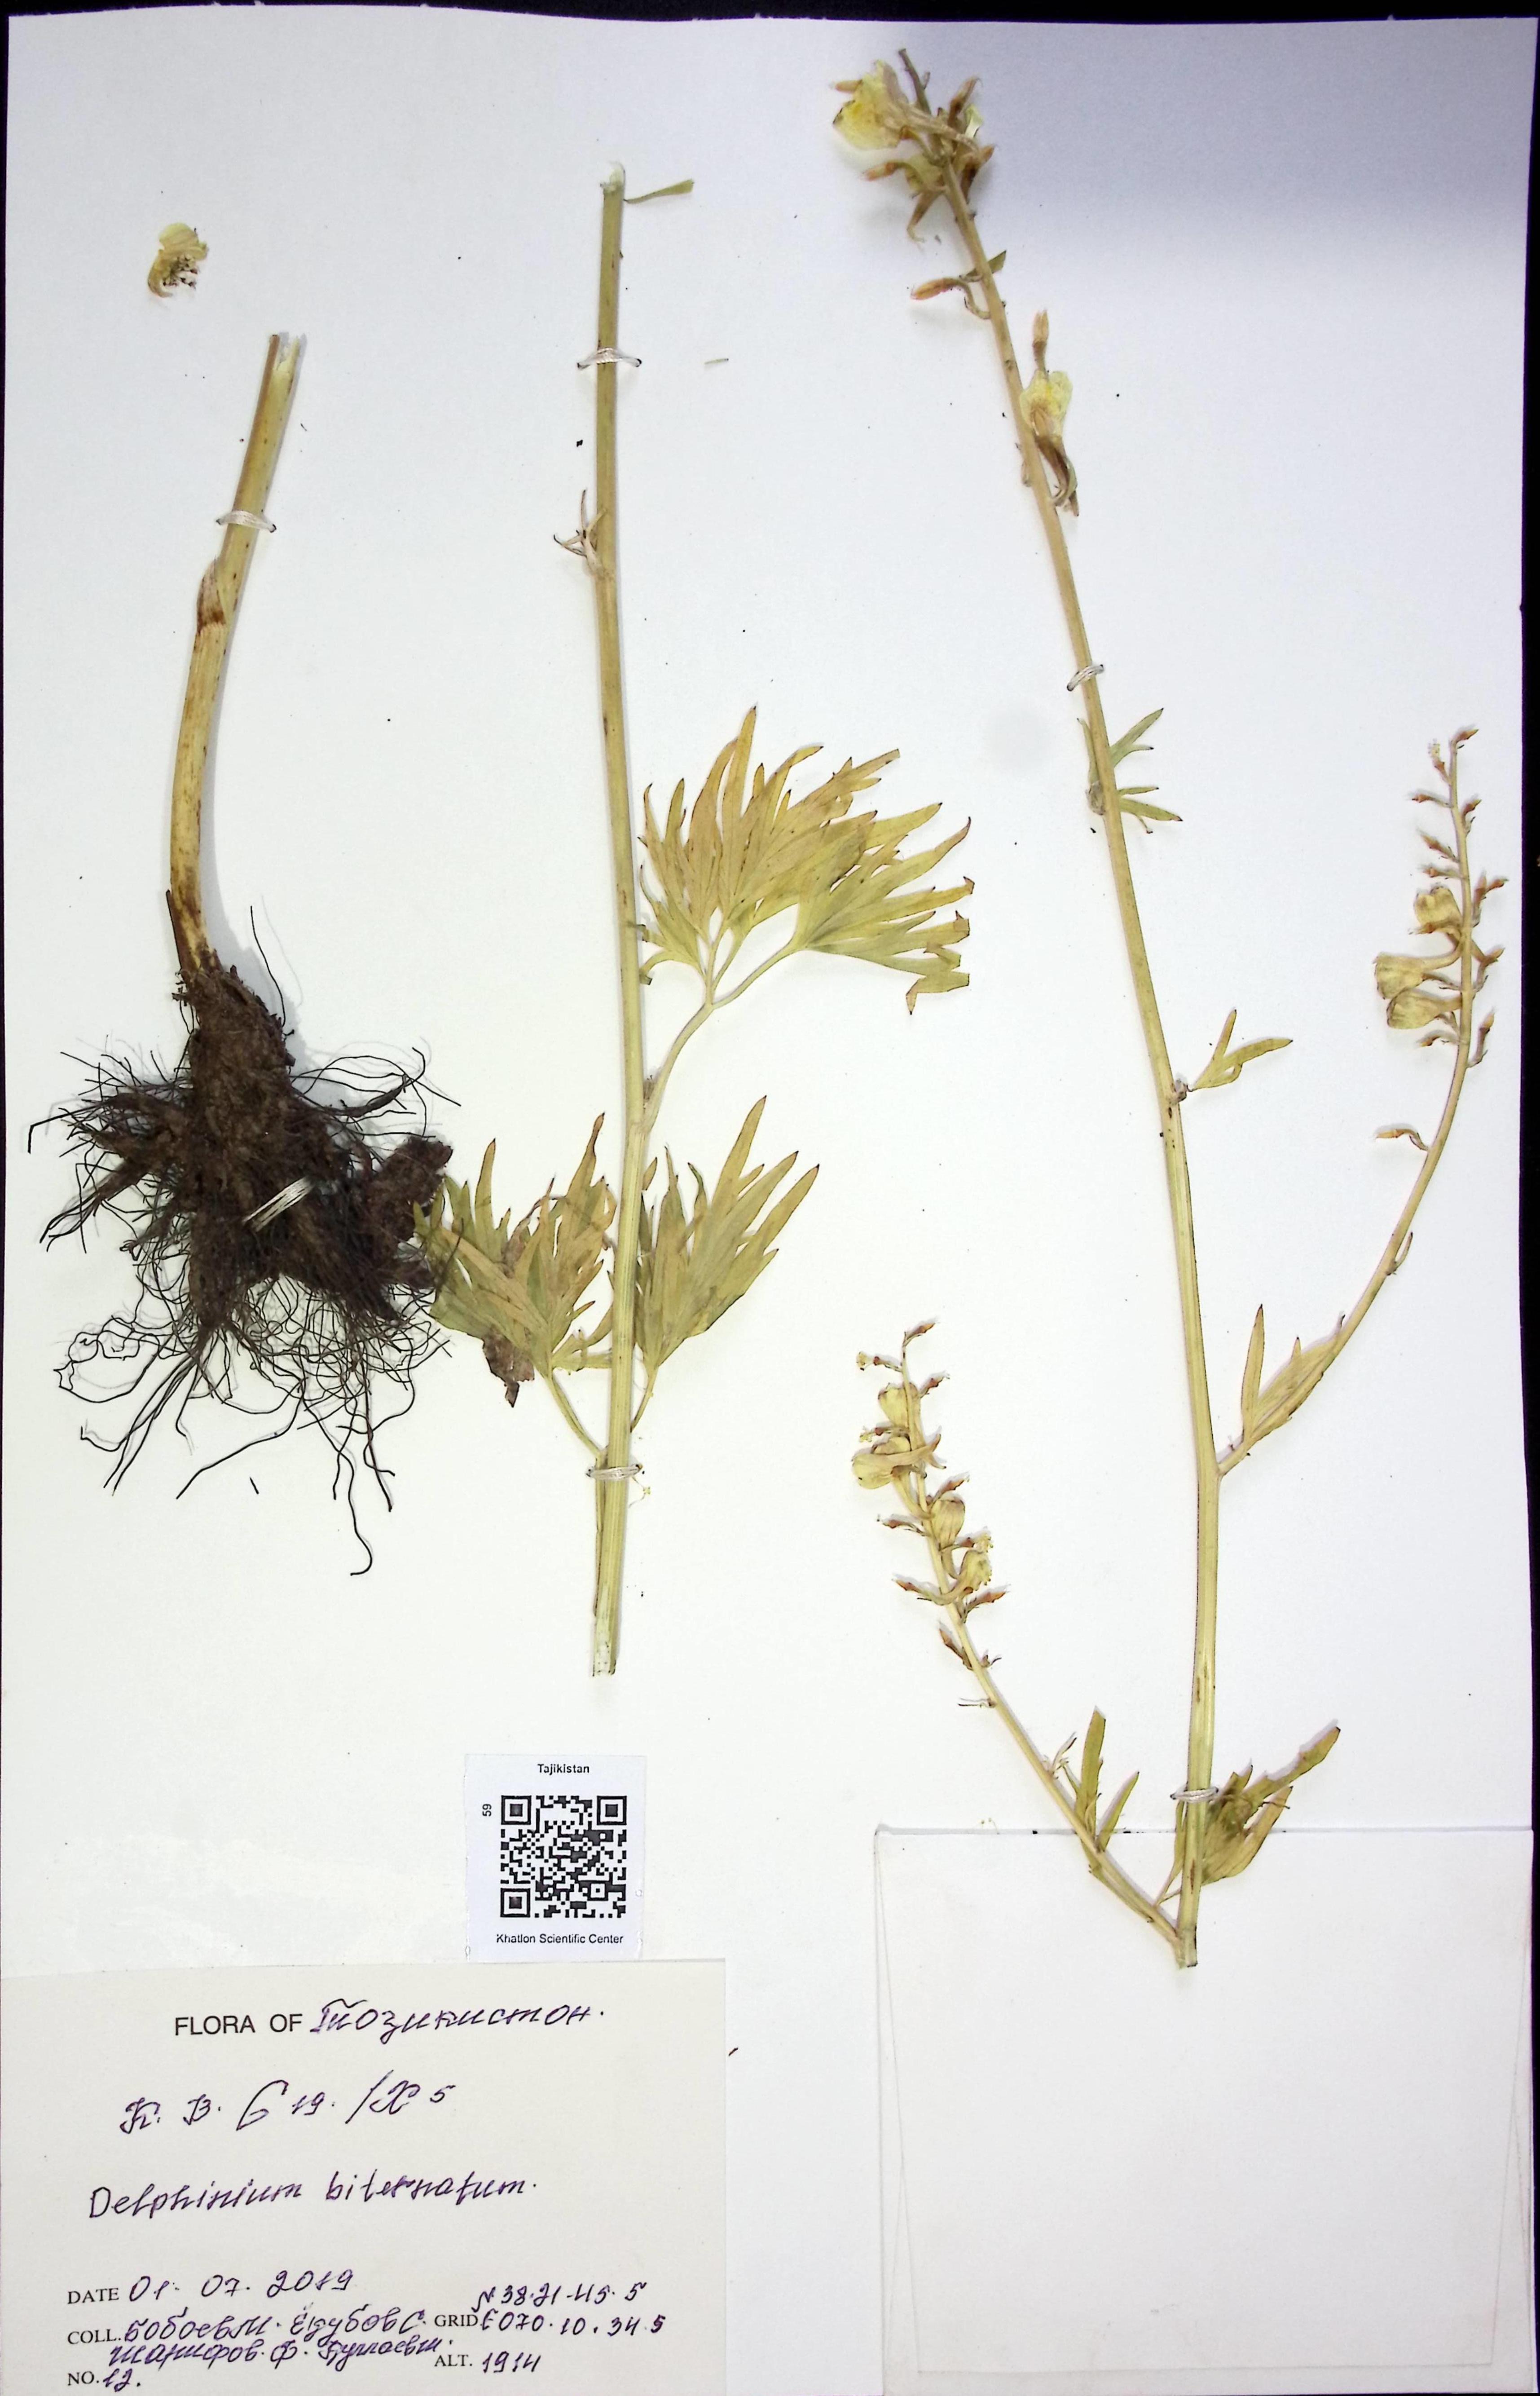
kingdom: Plantae
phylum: Tracheophyta
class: Magnoliopsida
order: Ranunculales
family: Ranunculaceae
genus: Delphinium
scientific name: Delphinium biternatum
